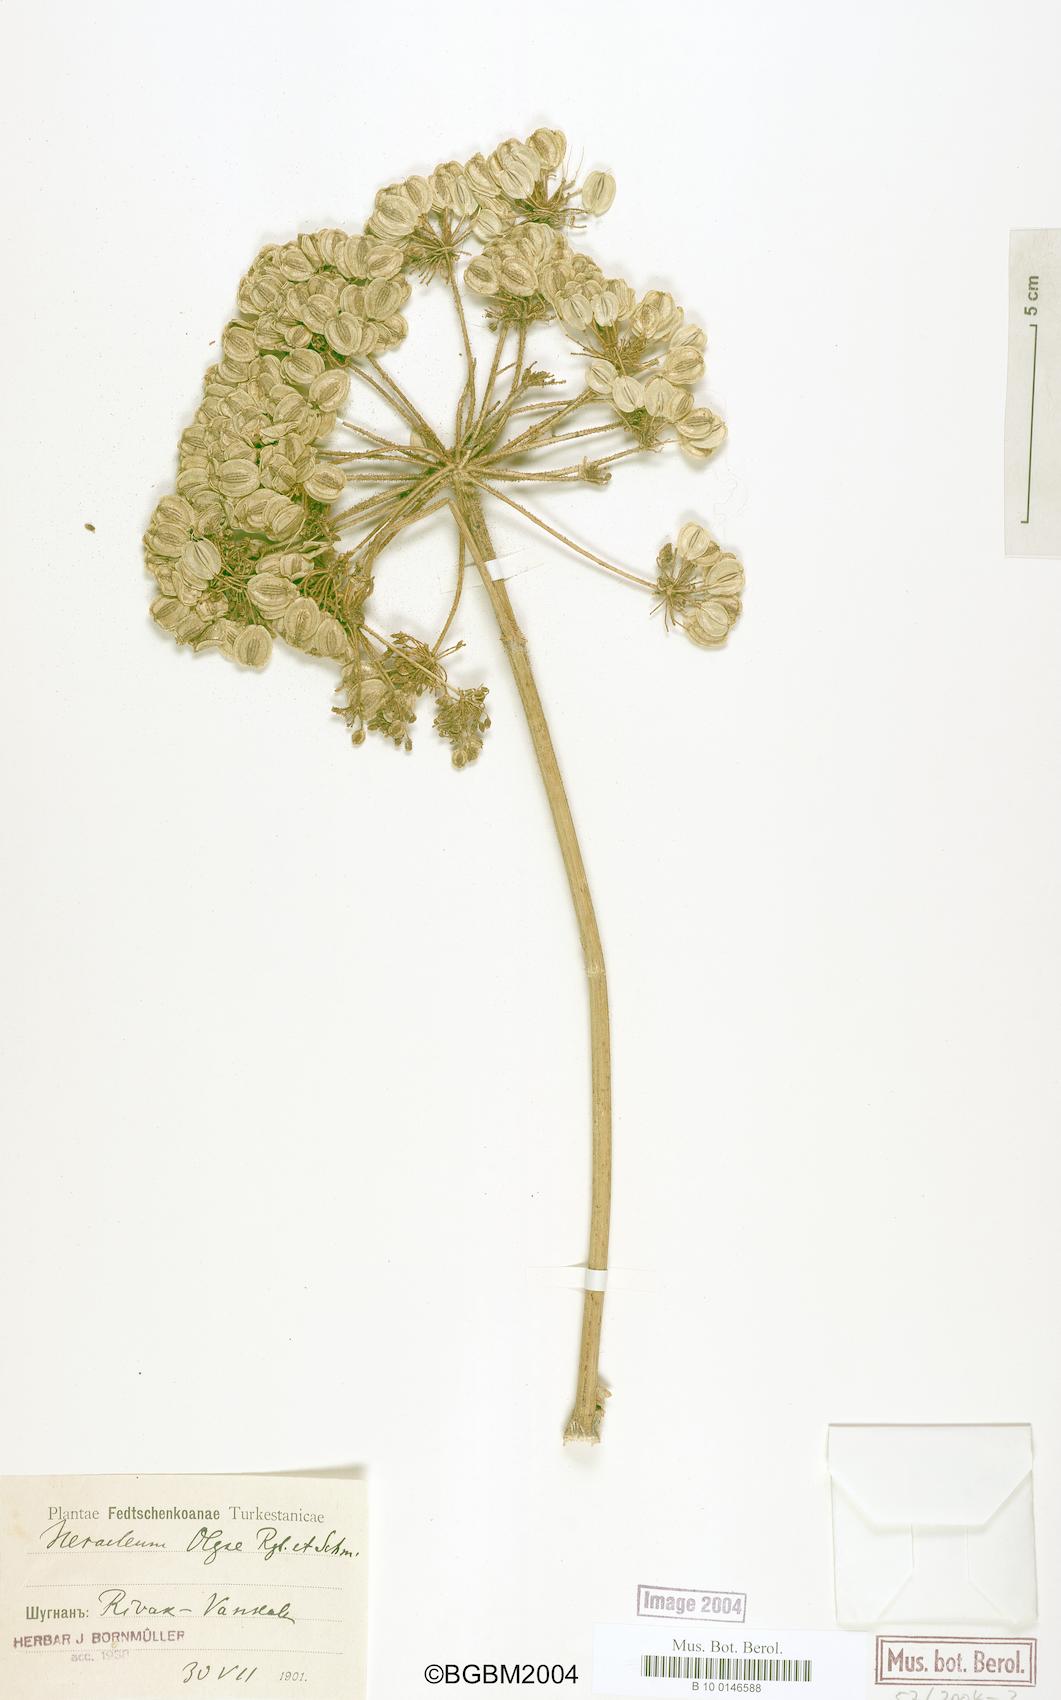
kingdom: Plantae
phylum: Tracheophyta
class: Magnoliopsida
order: Apiales
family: Apiaceae
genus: Tetrataenium
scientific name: Tetrataenium olgae
